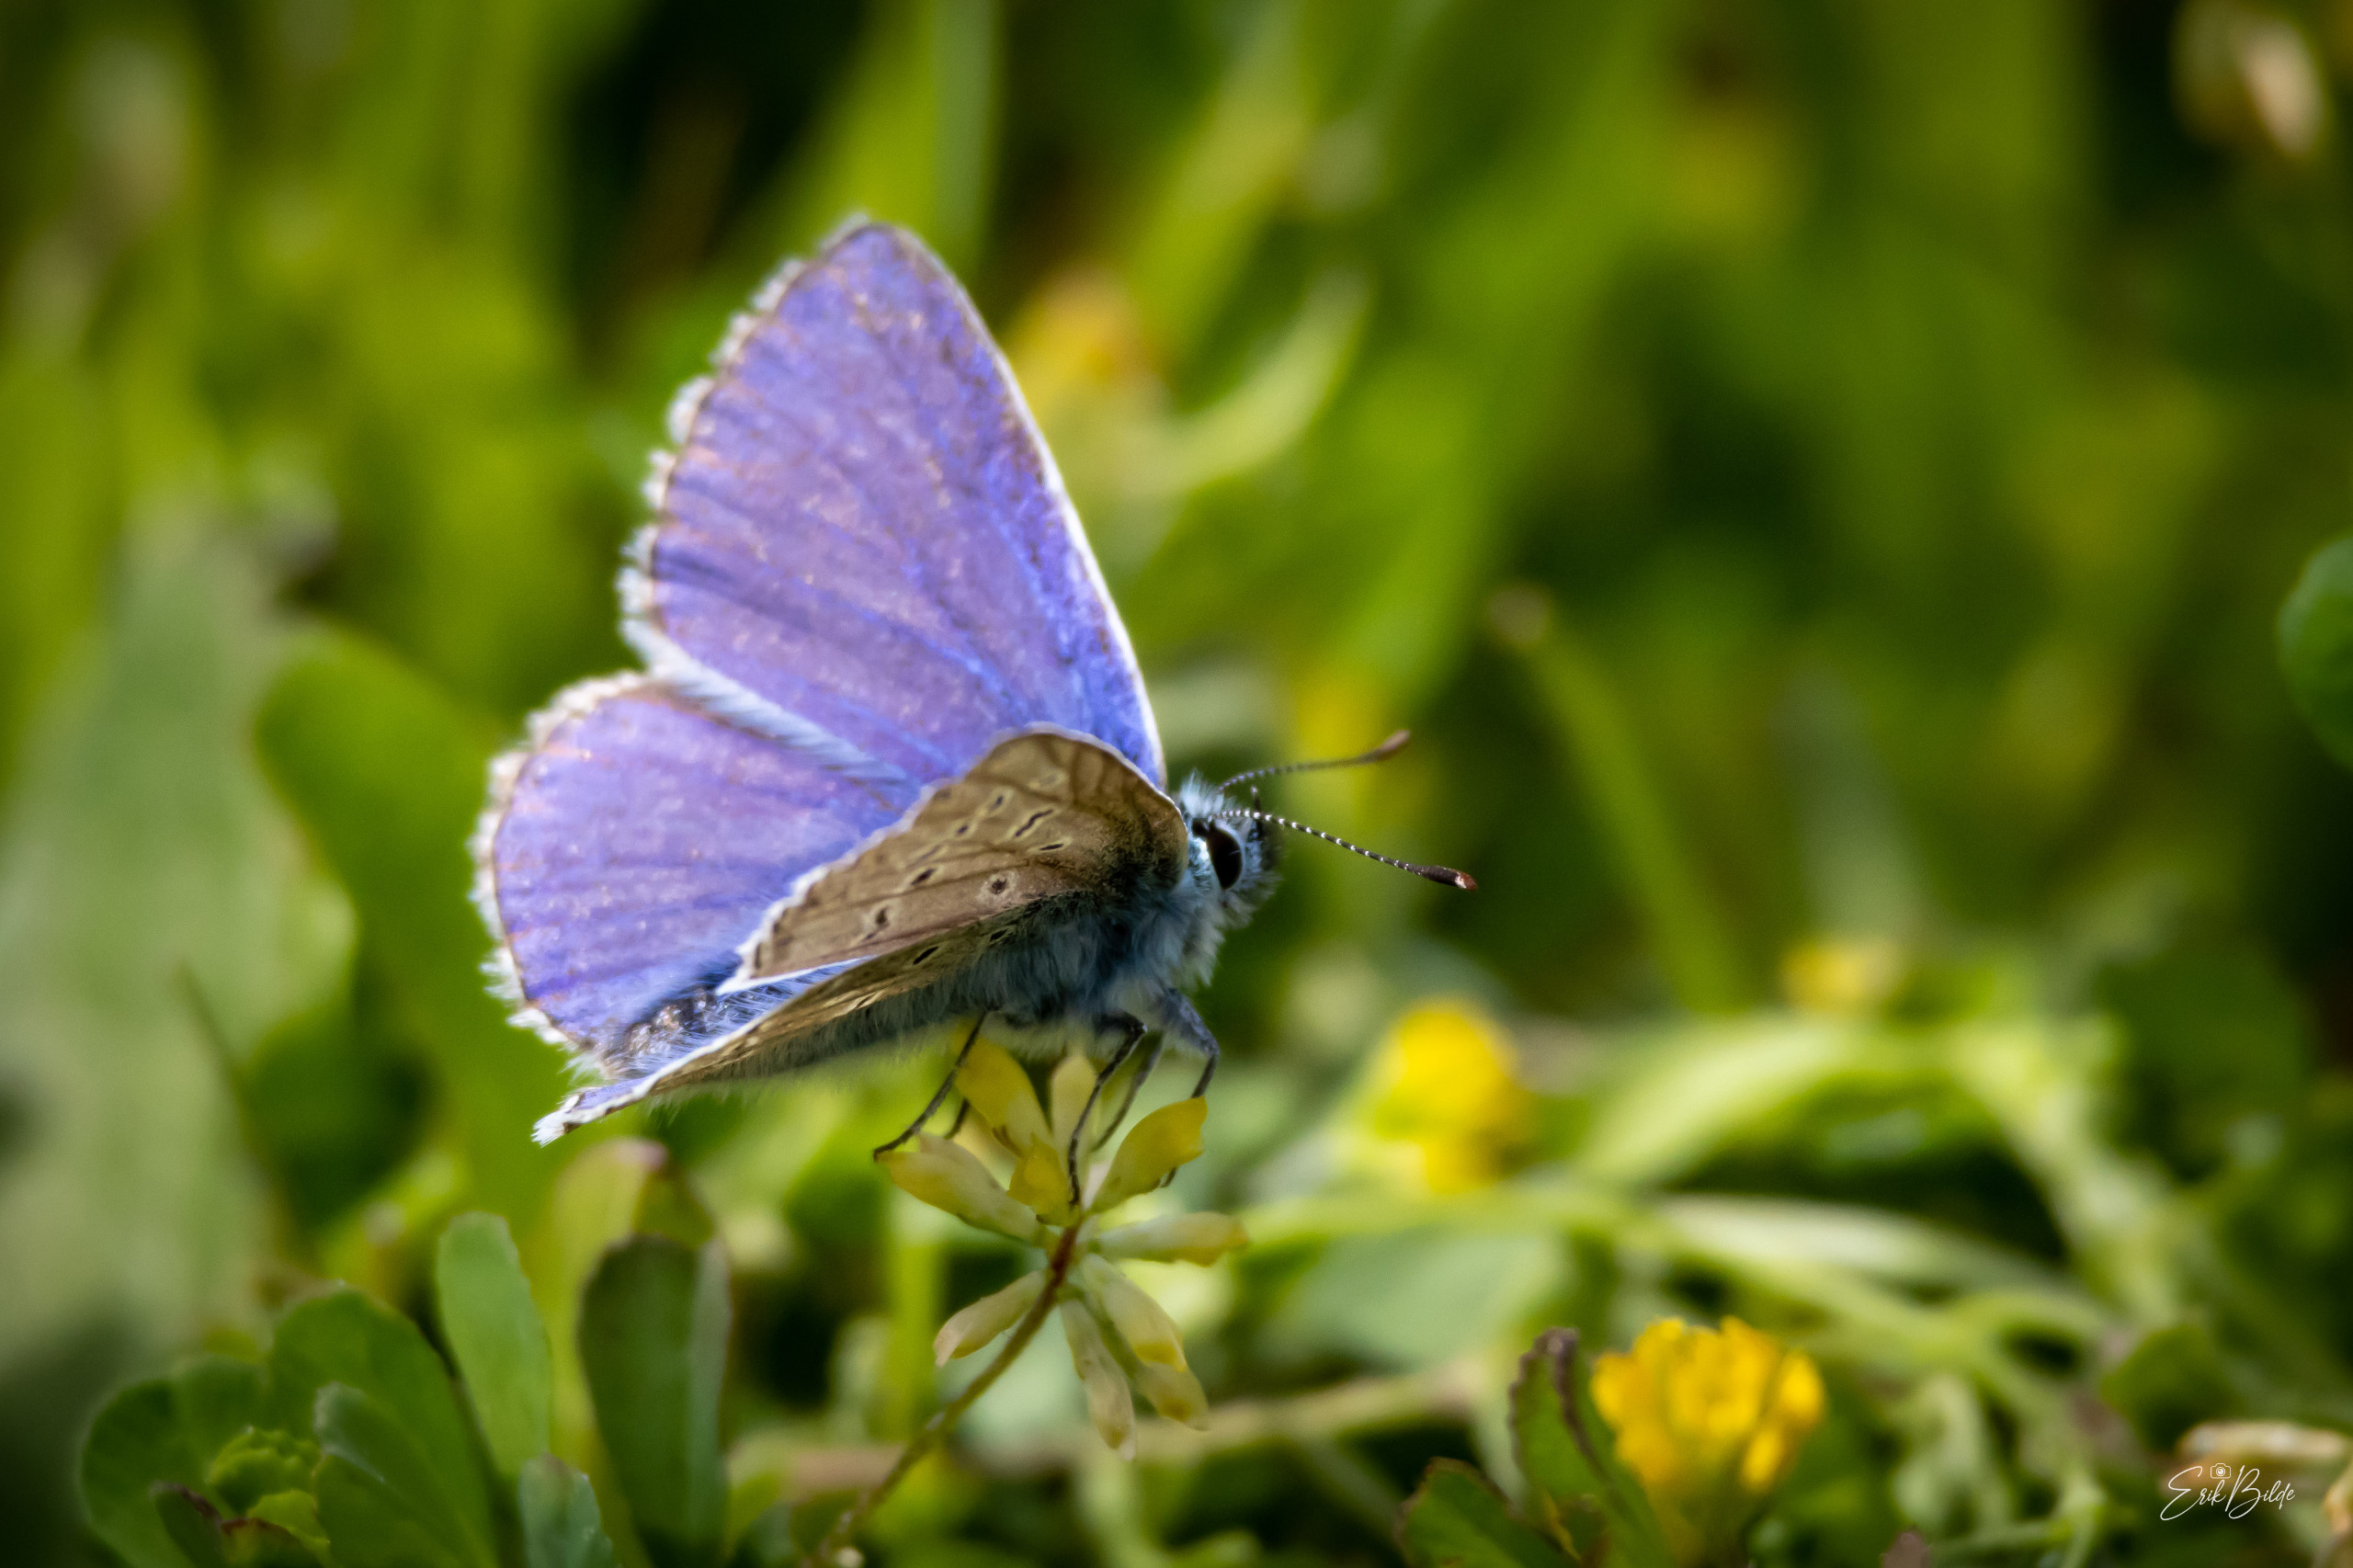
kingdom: Animalia
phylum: Arthropoda
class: Insecta
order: Lepidoptera
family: Lycaenidae
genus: Polyommatus
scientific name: Polyommatus icarus
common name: Almindelig blåfugl
